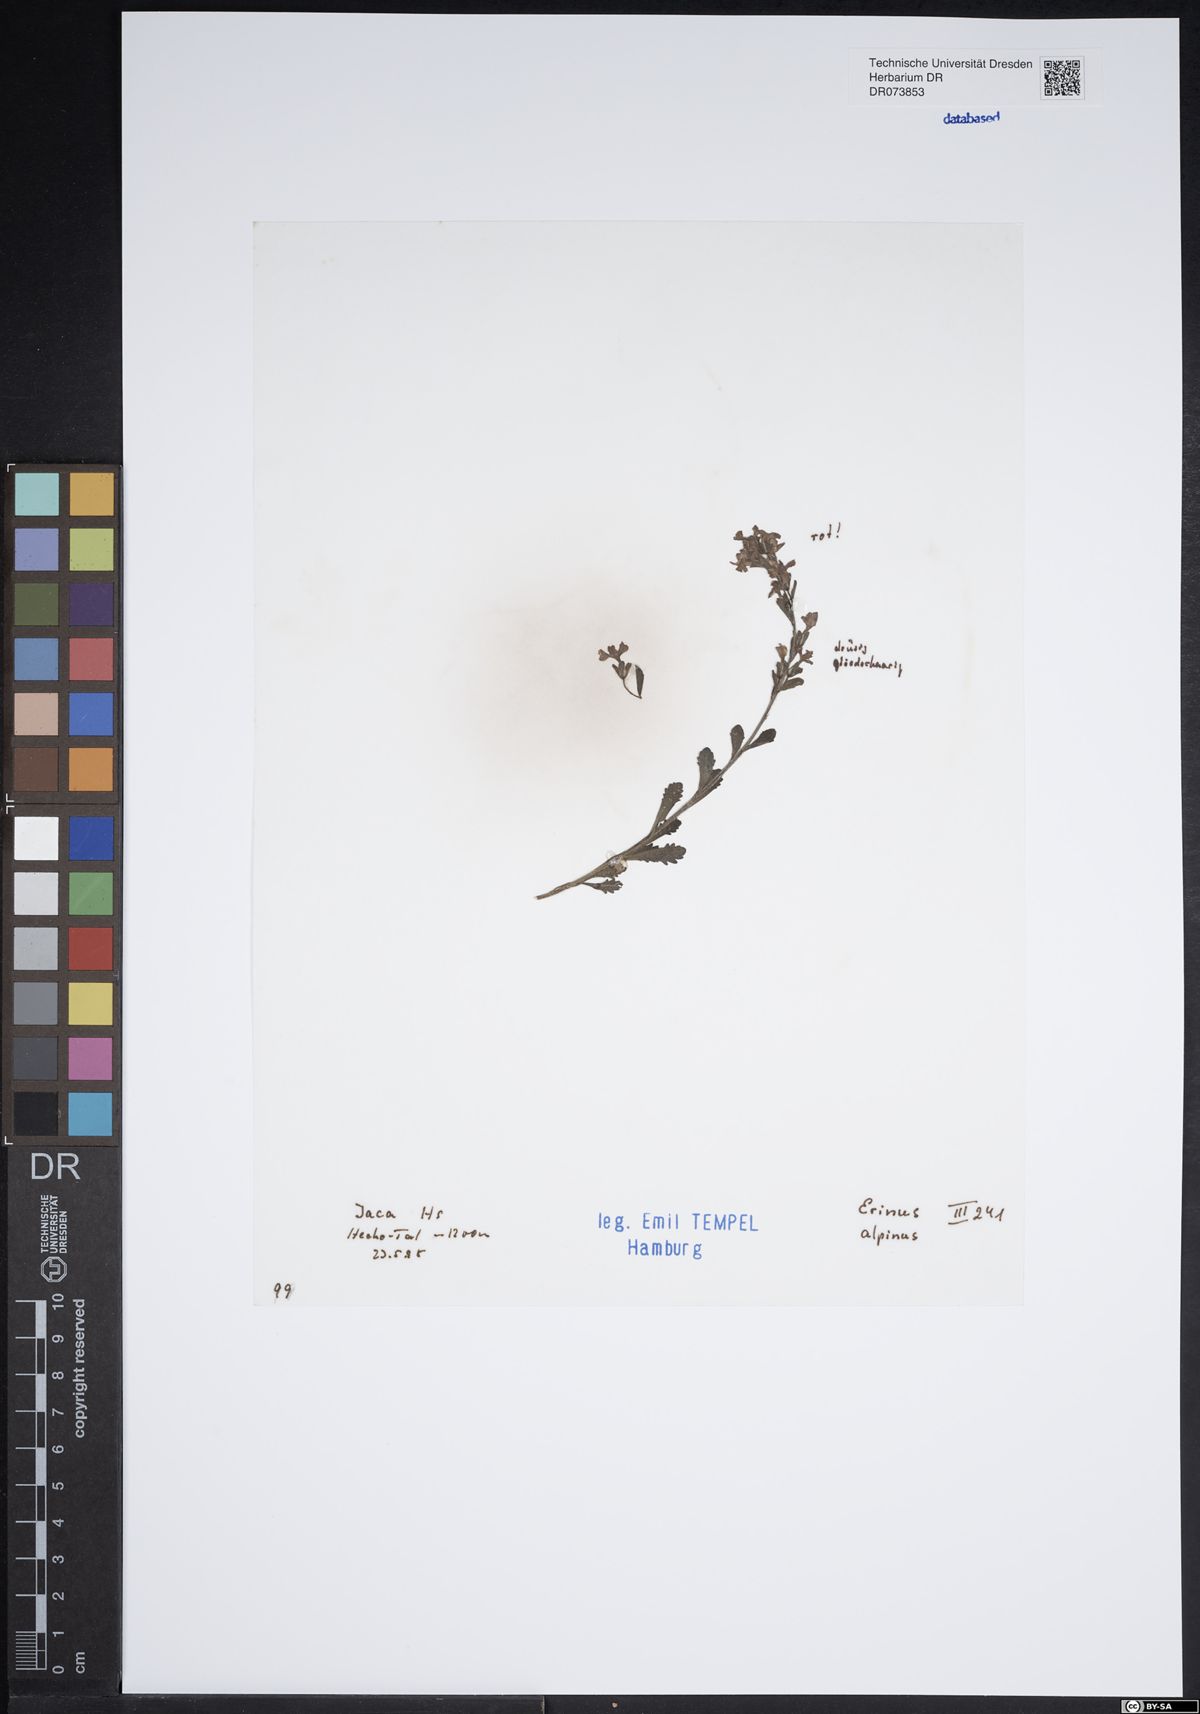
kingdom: Plantae
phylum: Tracheophyta
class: Magnoliopsida
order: Lamiales
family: Plantaginaceae
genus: Erinus
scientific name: Erinus alpinus
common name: Fairy foxglove
